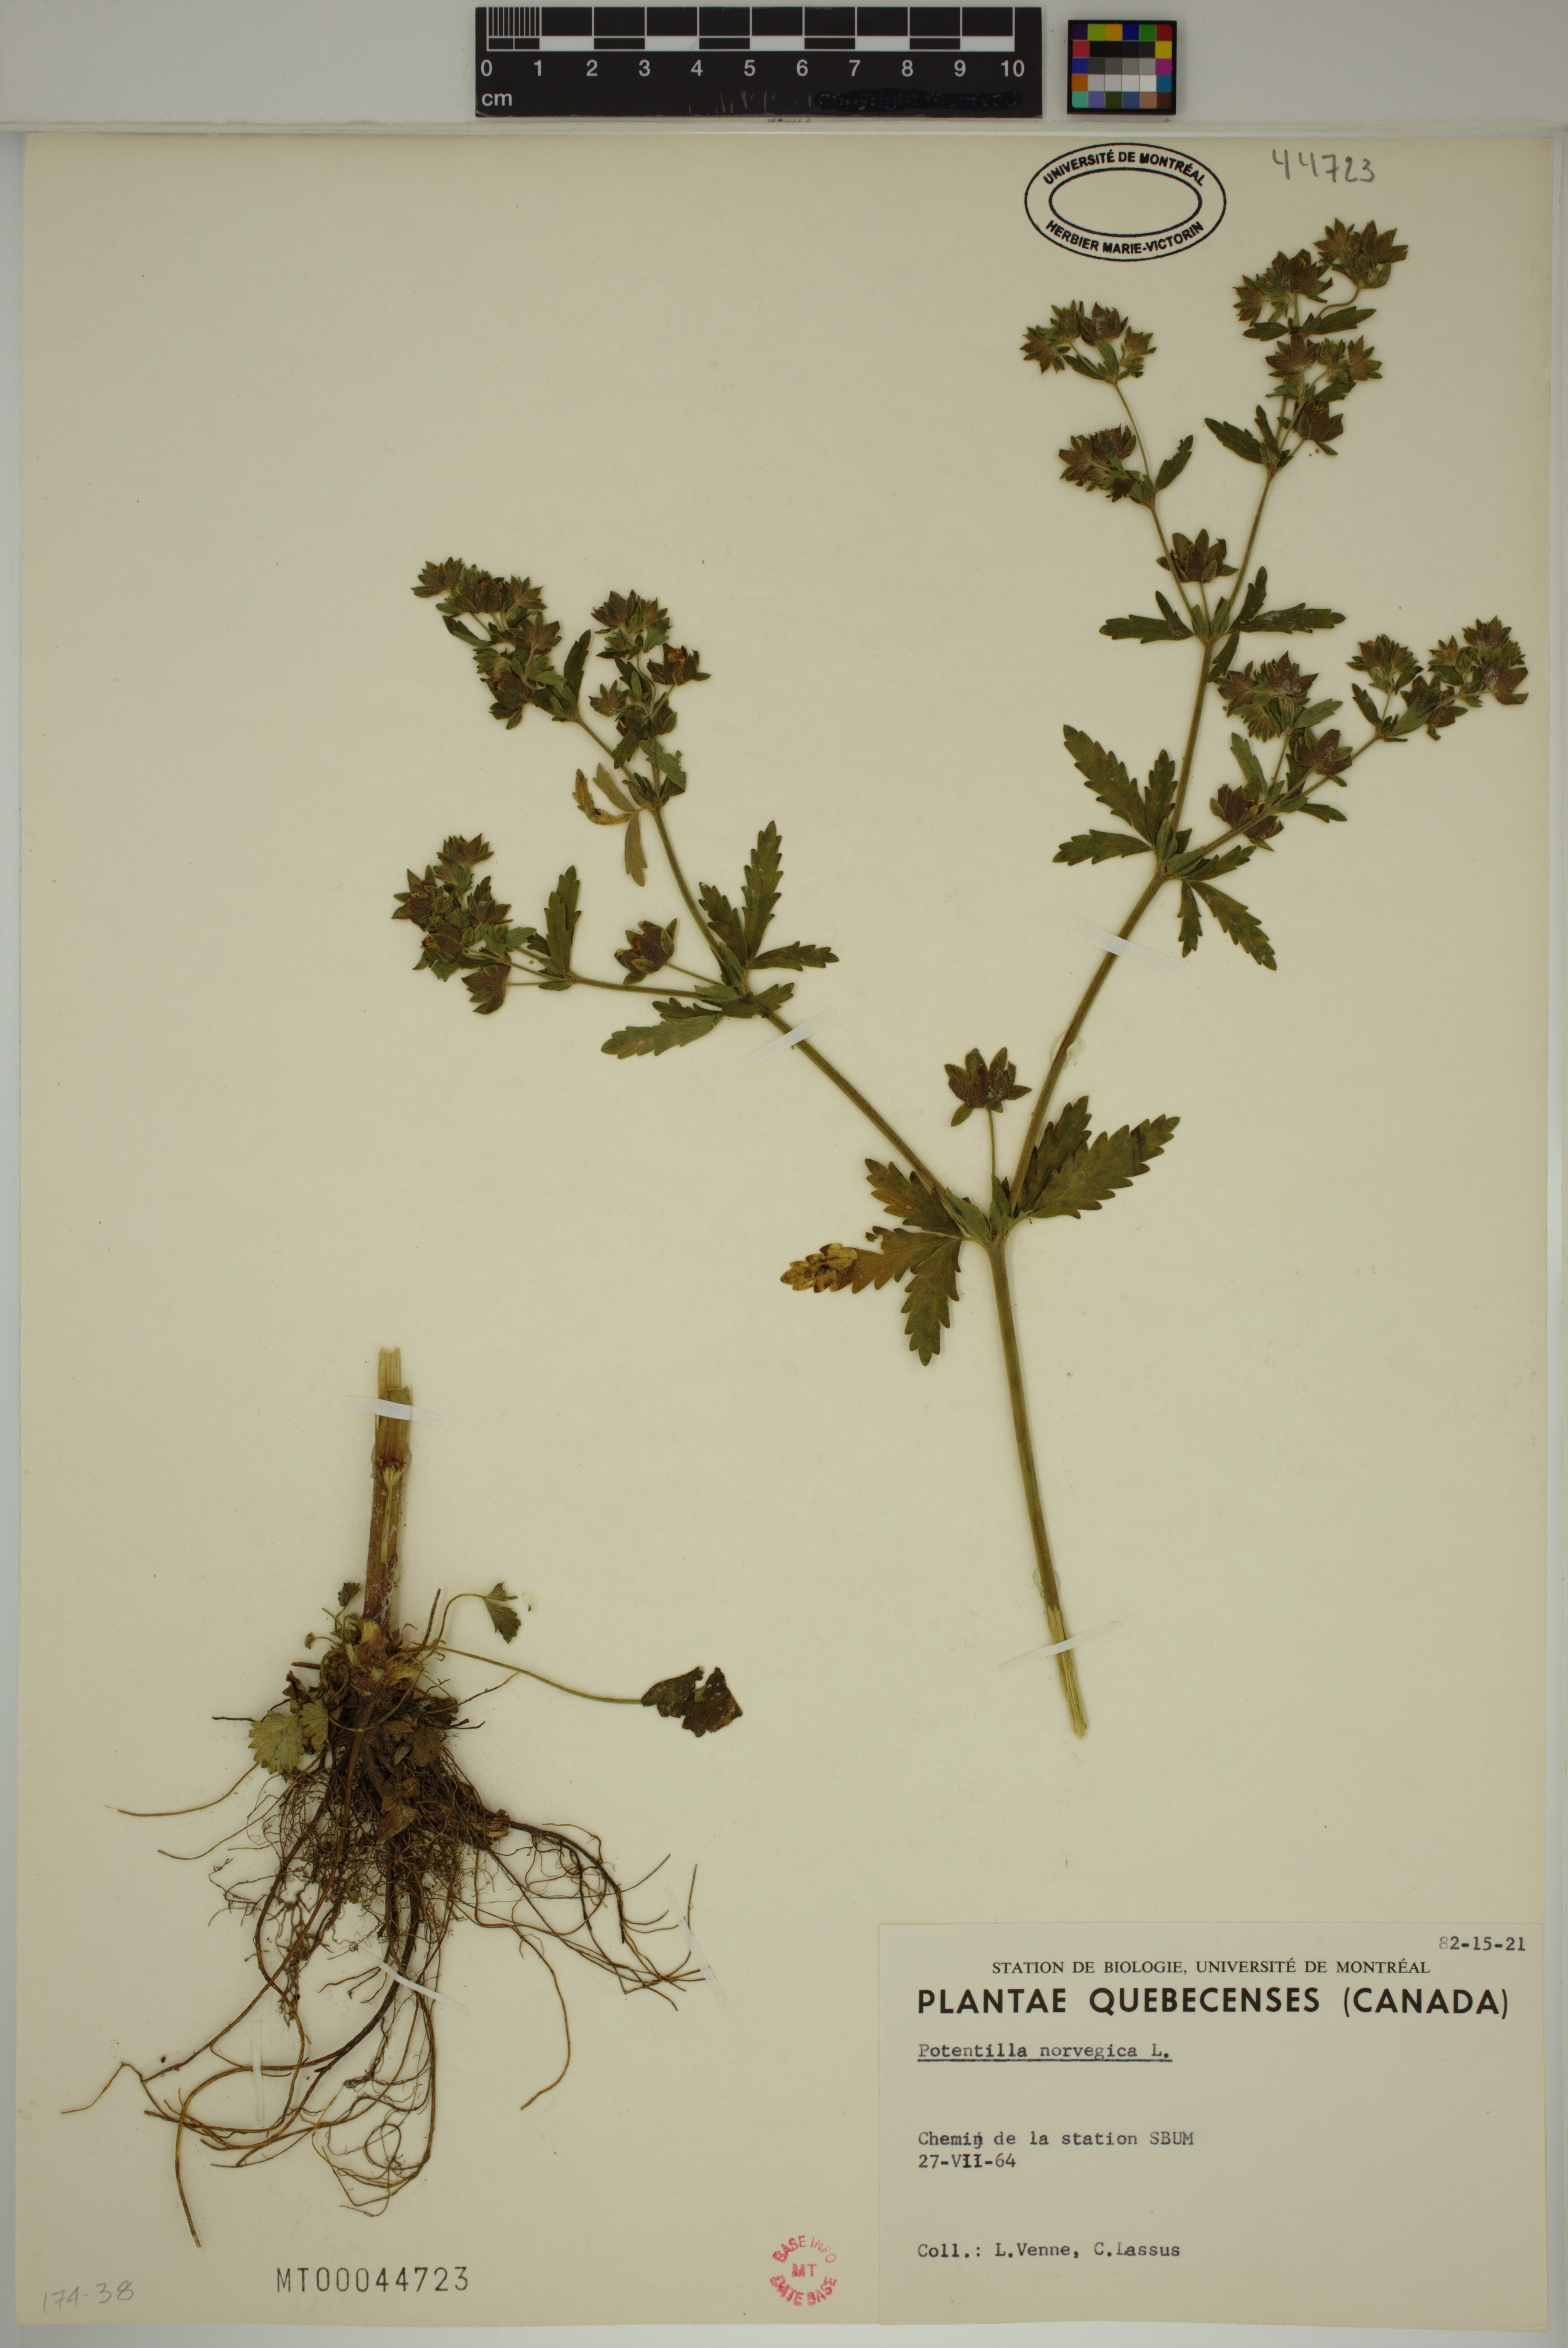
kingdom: Plantae
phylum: Tracheophyta
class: Magnoliopsida
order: Rosales
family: Rosaceae
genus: Potentilla
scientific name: Potentilla norvegica
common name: Ternate-leaved cinquefoil
